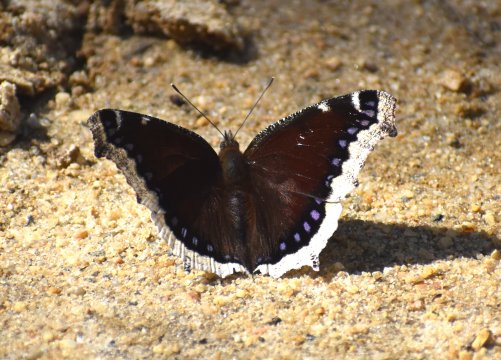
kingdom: Animalia
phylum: Arthropoda
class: Insecta
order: Lepidoptera
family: Nymphalidae
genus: Nymphalis
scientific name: Nymphalis antiopa
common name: Mourning Cloak
